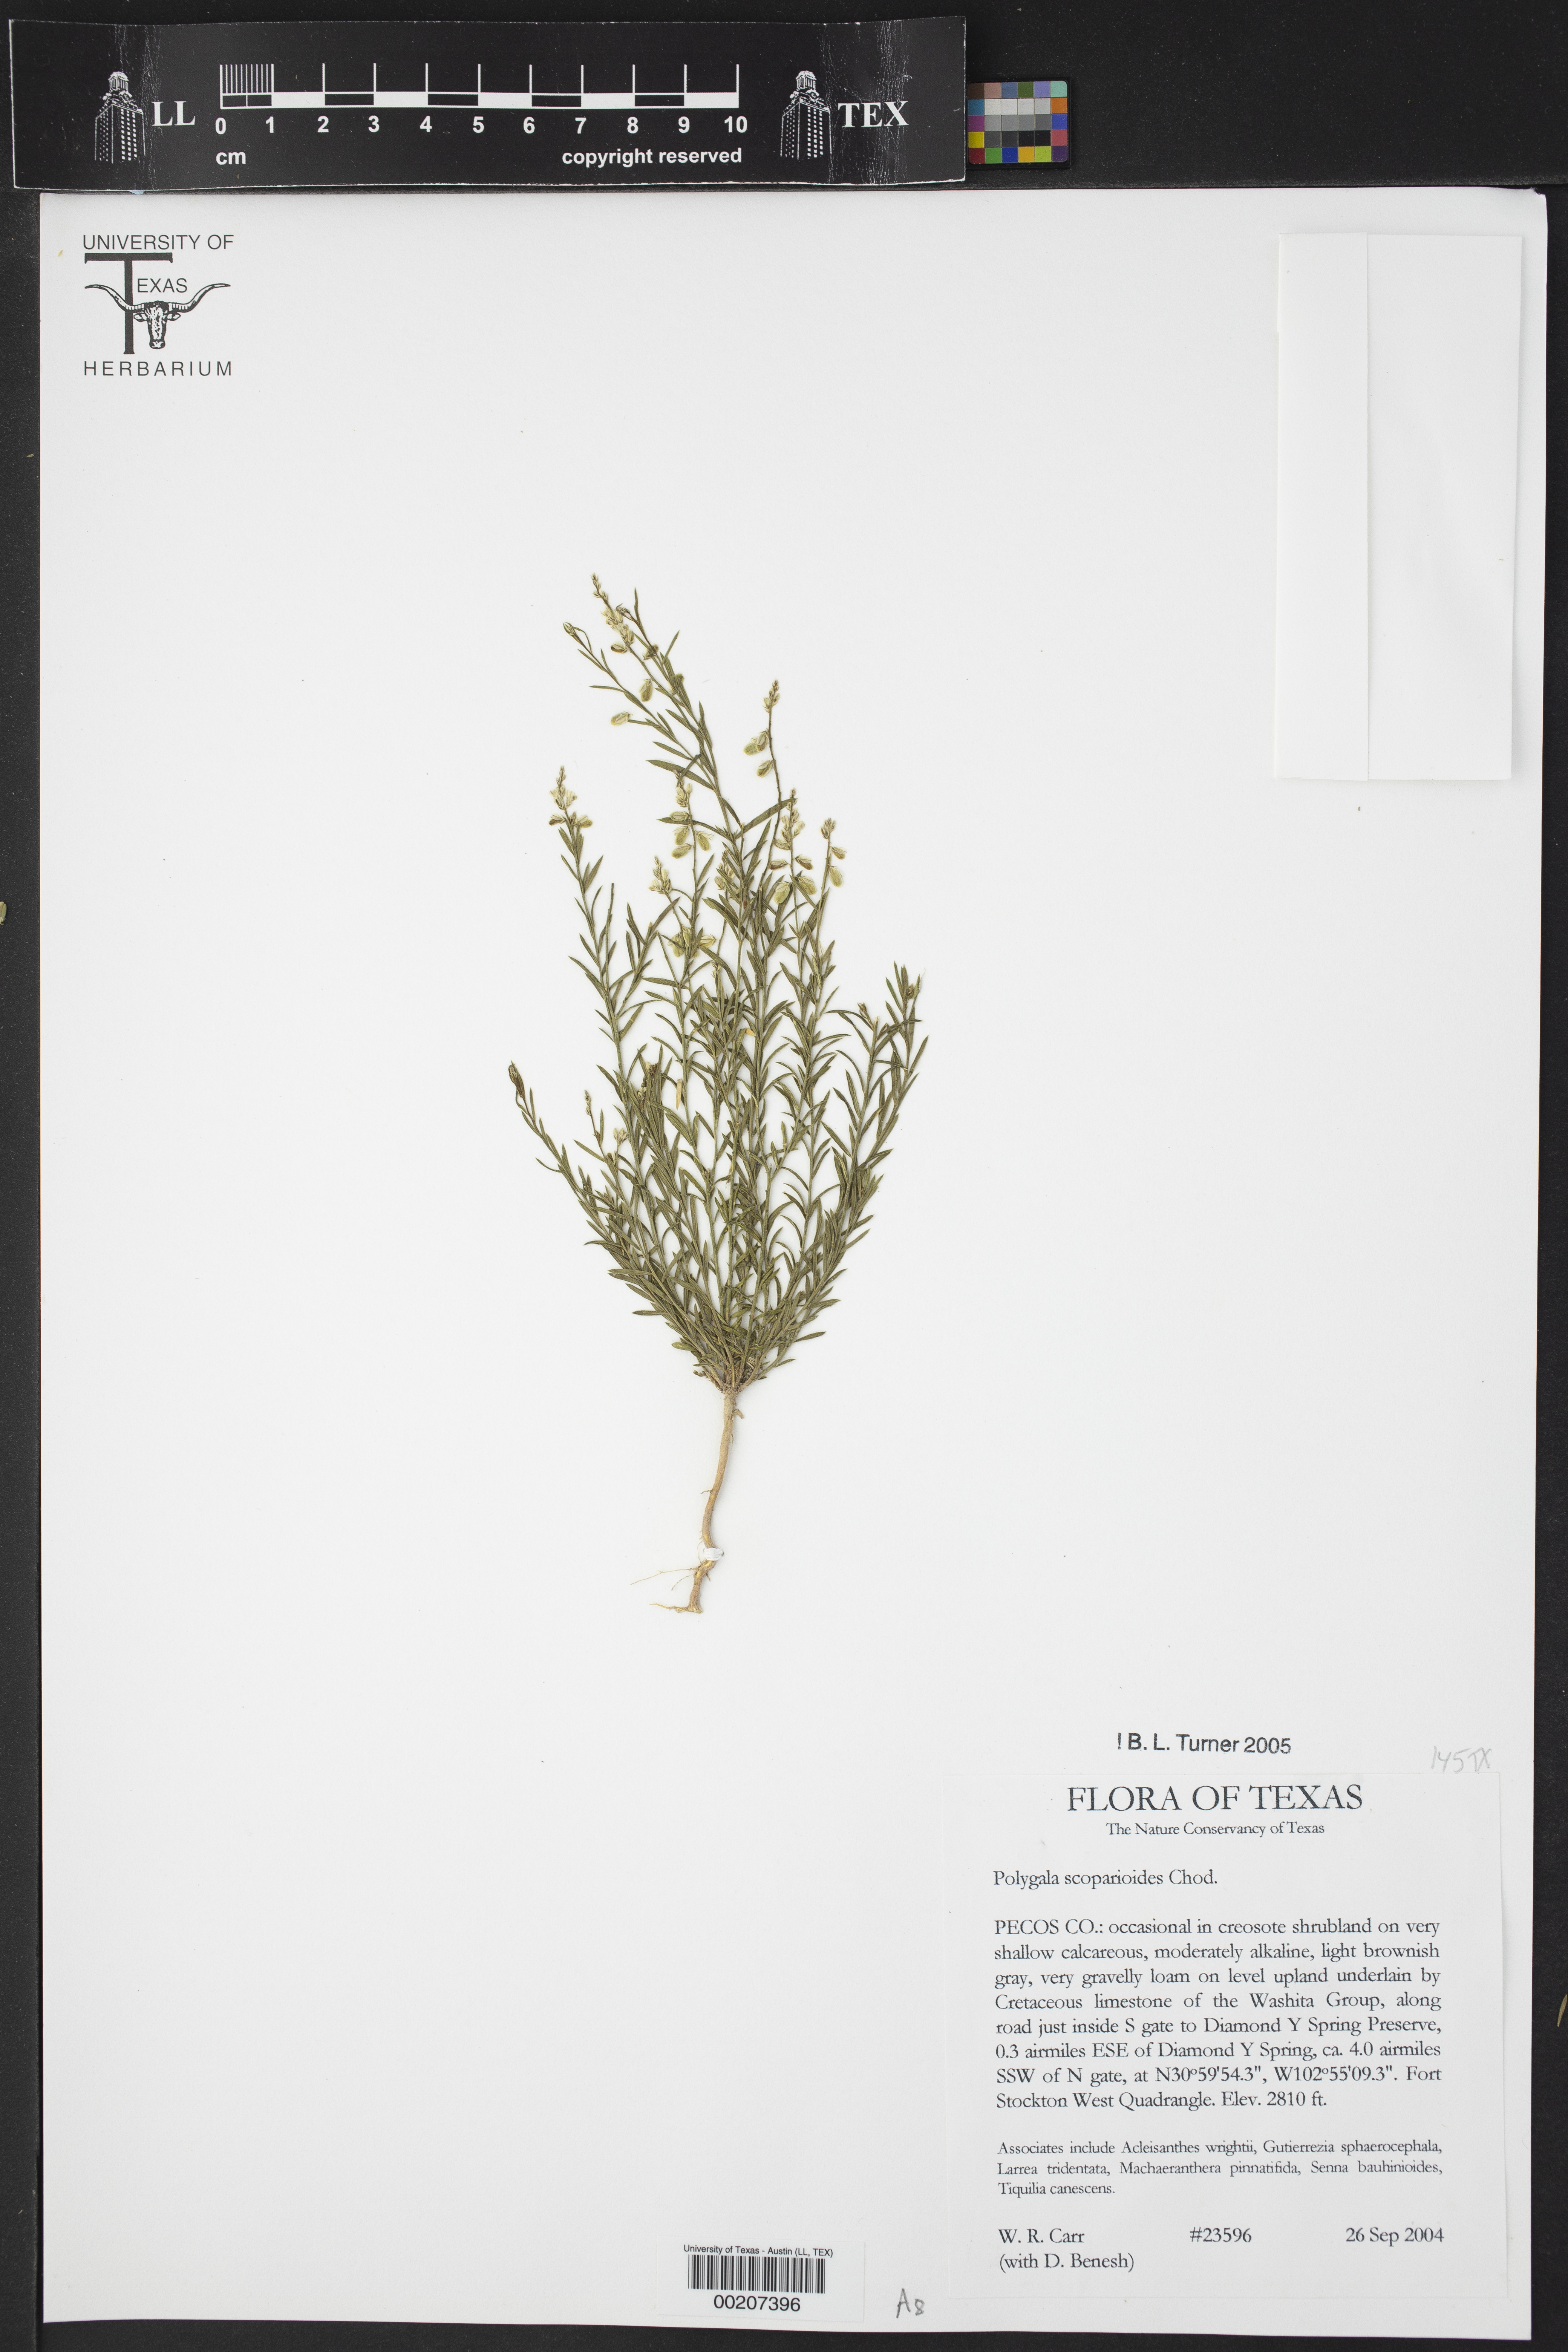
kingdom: Plantae
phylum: Tracheophyta
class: Magnoliopsida
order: Fabales
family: Polygalaceae
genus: Polygala
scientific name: Polygala scoparioides
